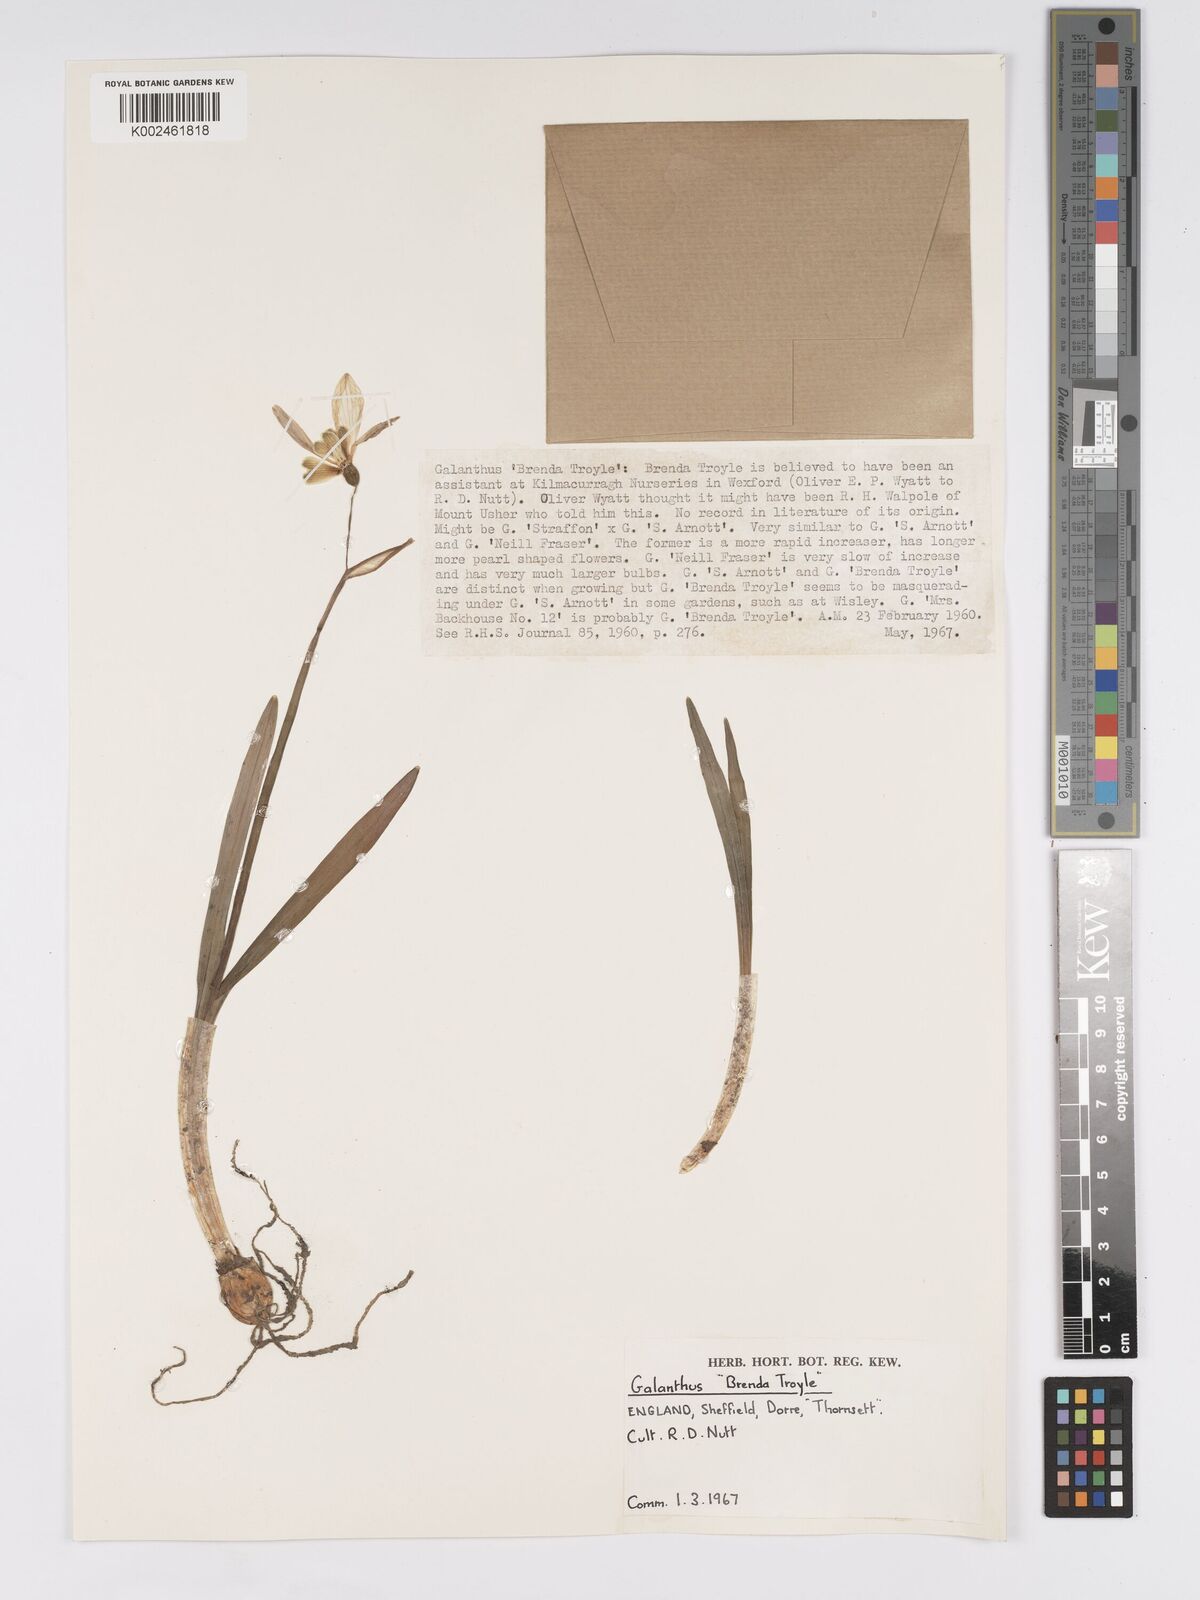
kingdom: Plantae
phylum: Tracheophyta
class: Liliopsida
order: Asparagales
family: Amaryllidaceae
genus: Galanthus
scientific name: Galanthus
